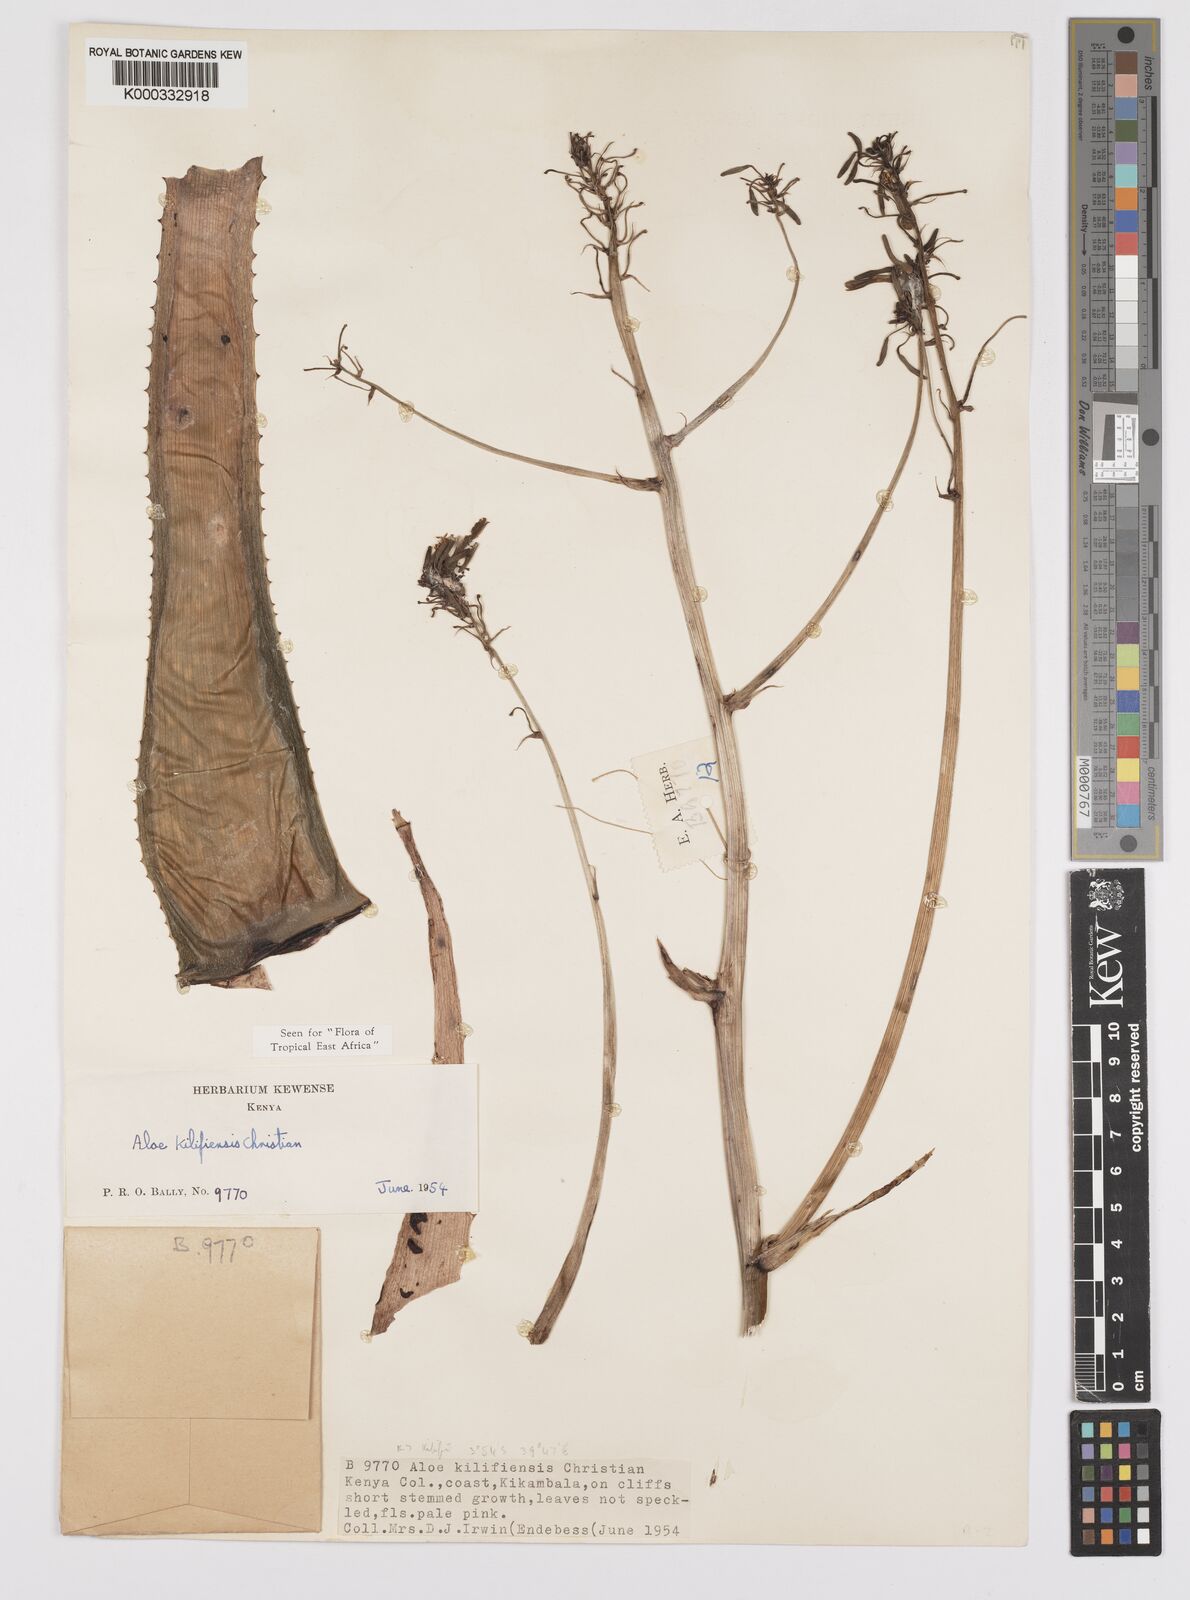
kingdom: Plantae
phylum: Tracheophyta
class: Liliopsida
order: Asparagales
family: Asphodelaceae
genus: Aloe
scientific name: Aloe kilifiensis
